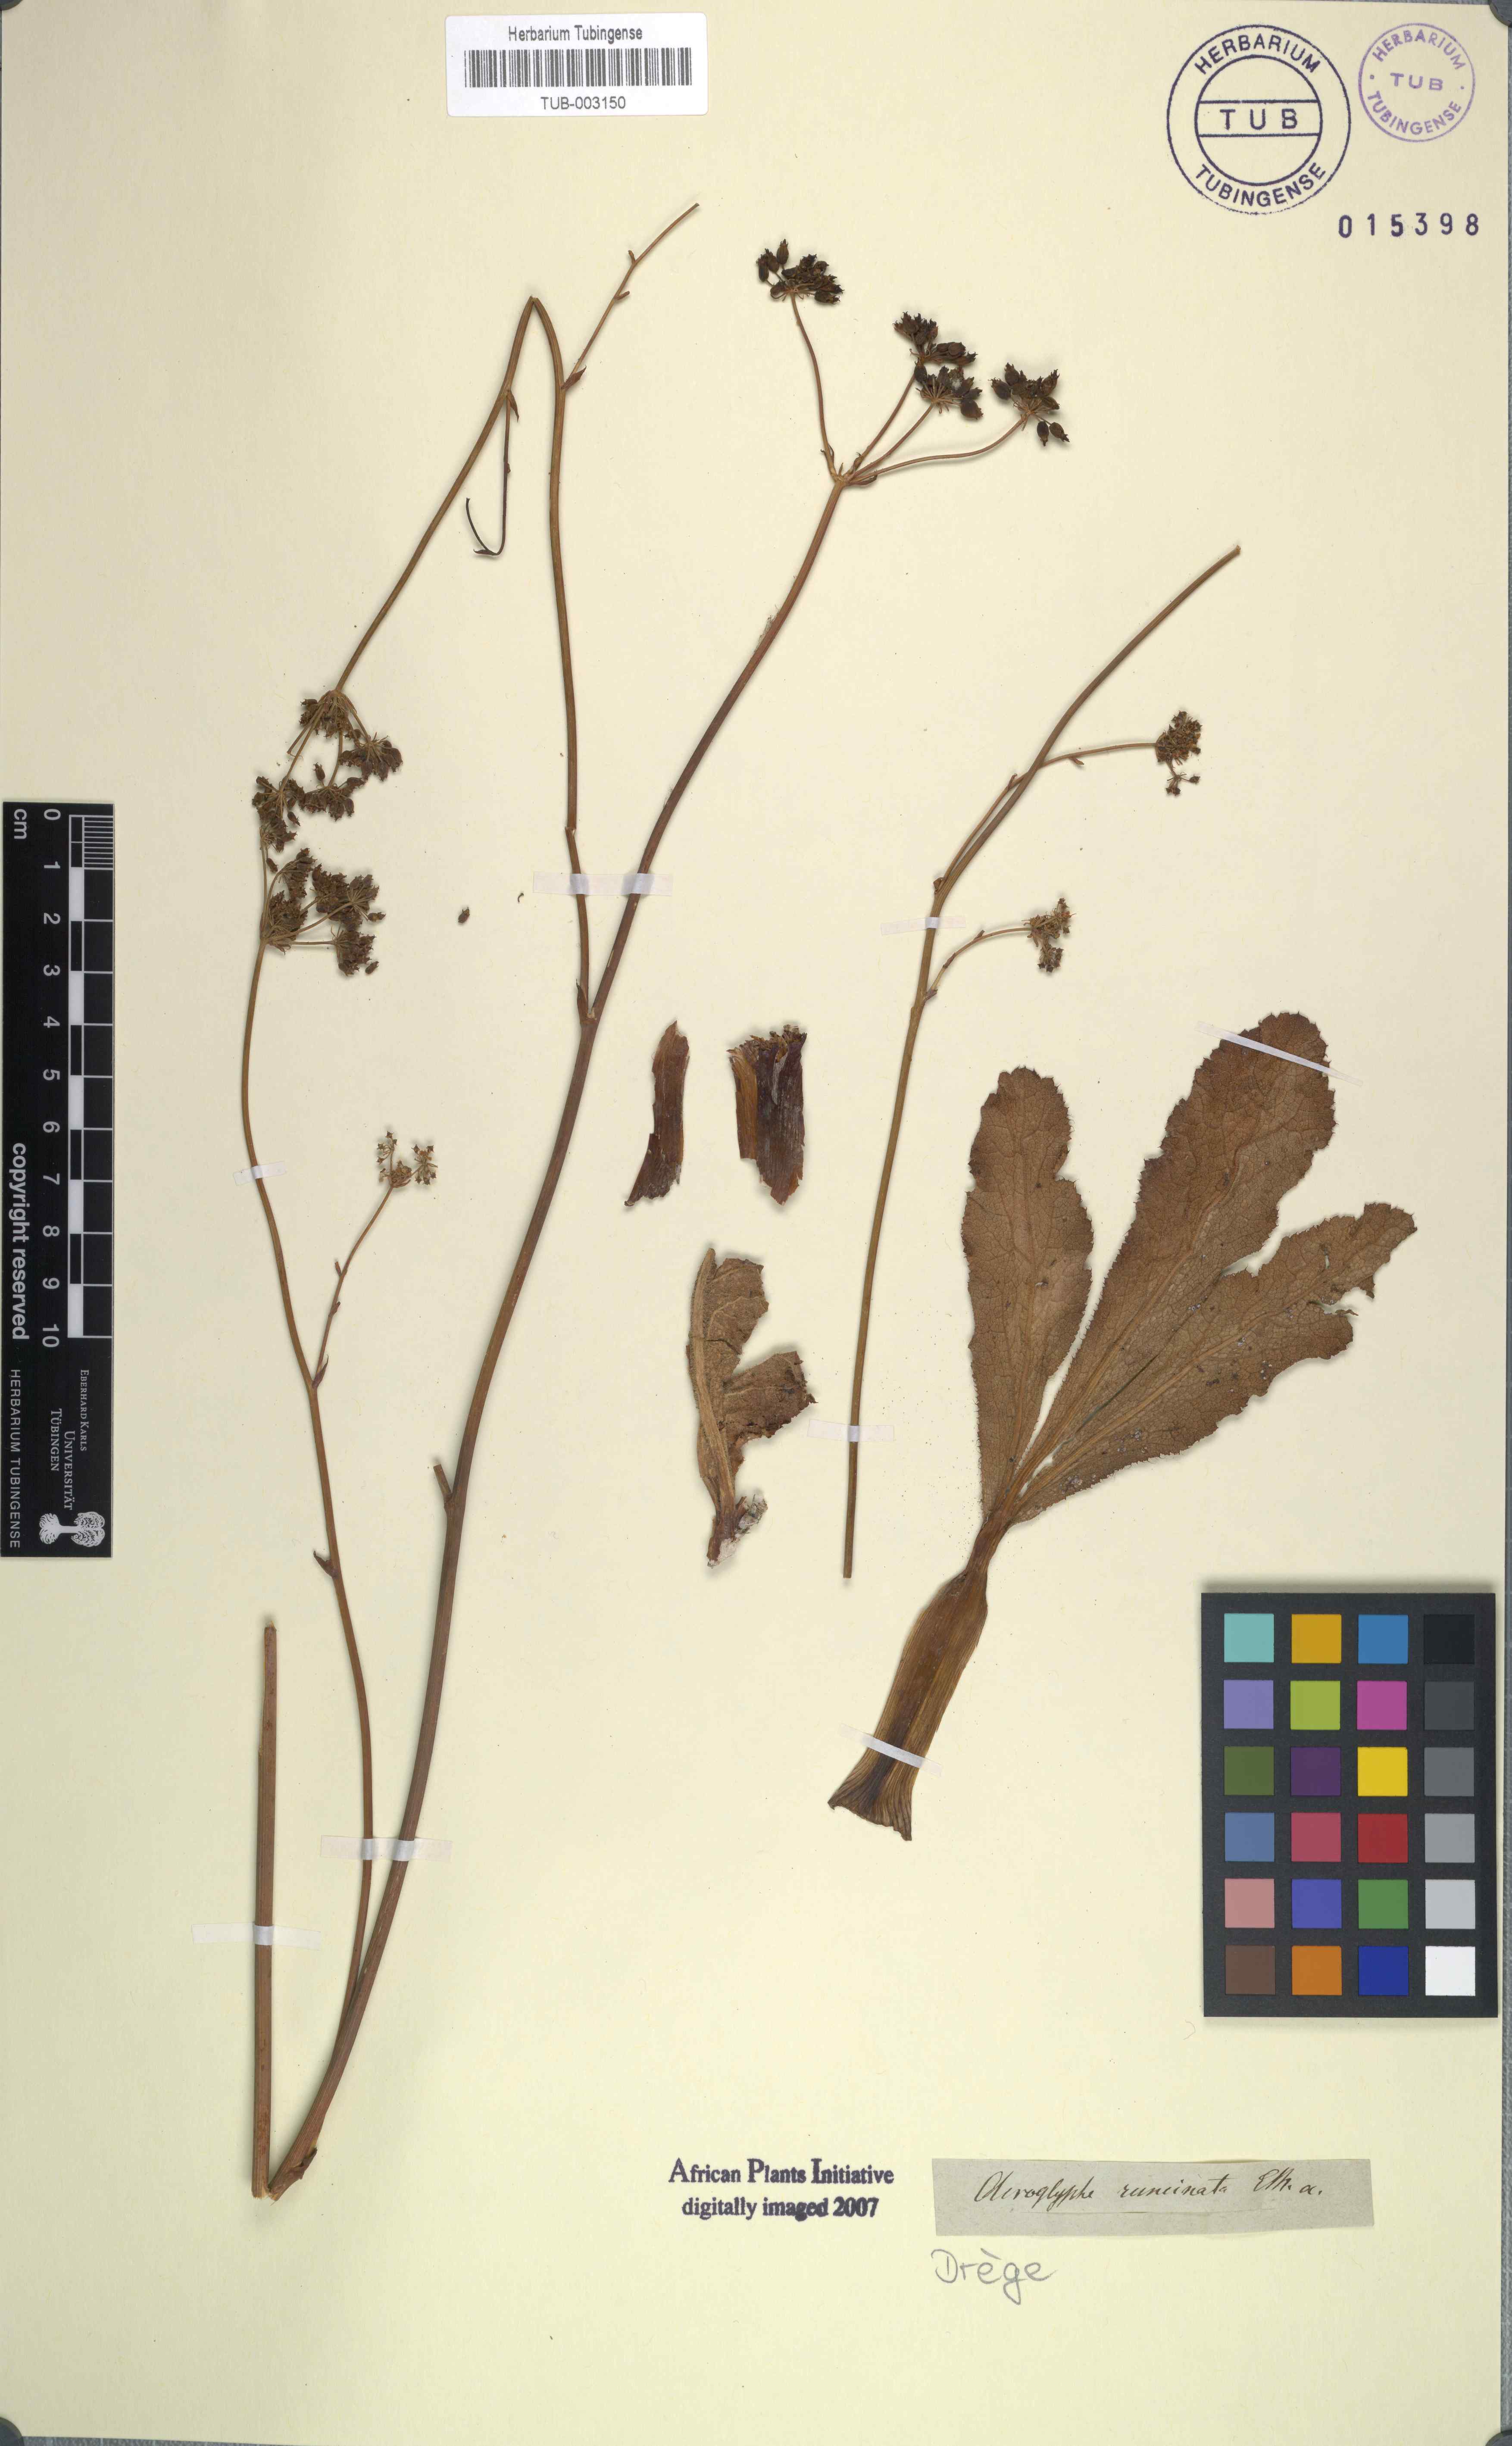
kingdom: Plantae
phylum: Tracheophyta
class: Magnoliopsida
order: Apiales
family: Apiaceae
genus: Lichtensteinia
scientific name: Lichtensteinia trifida
